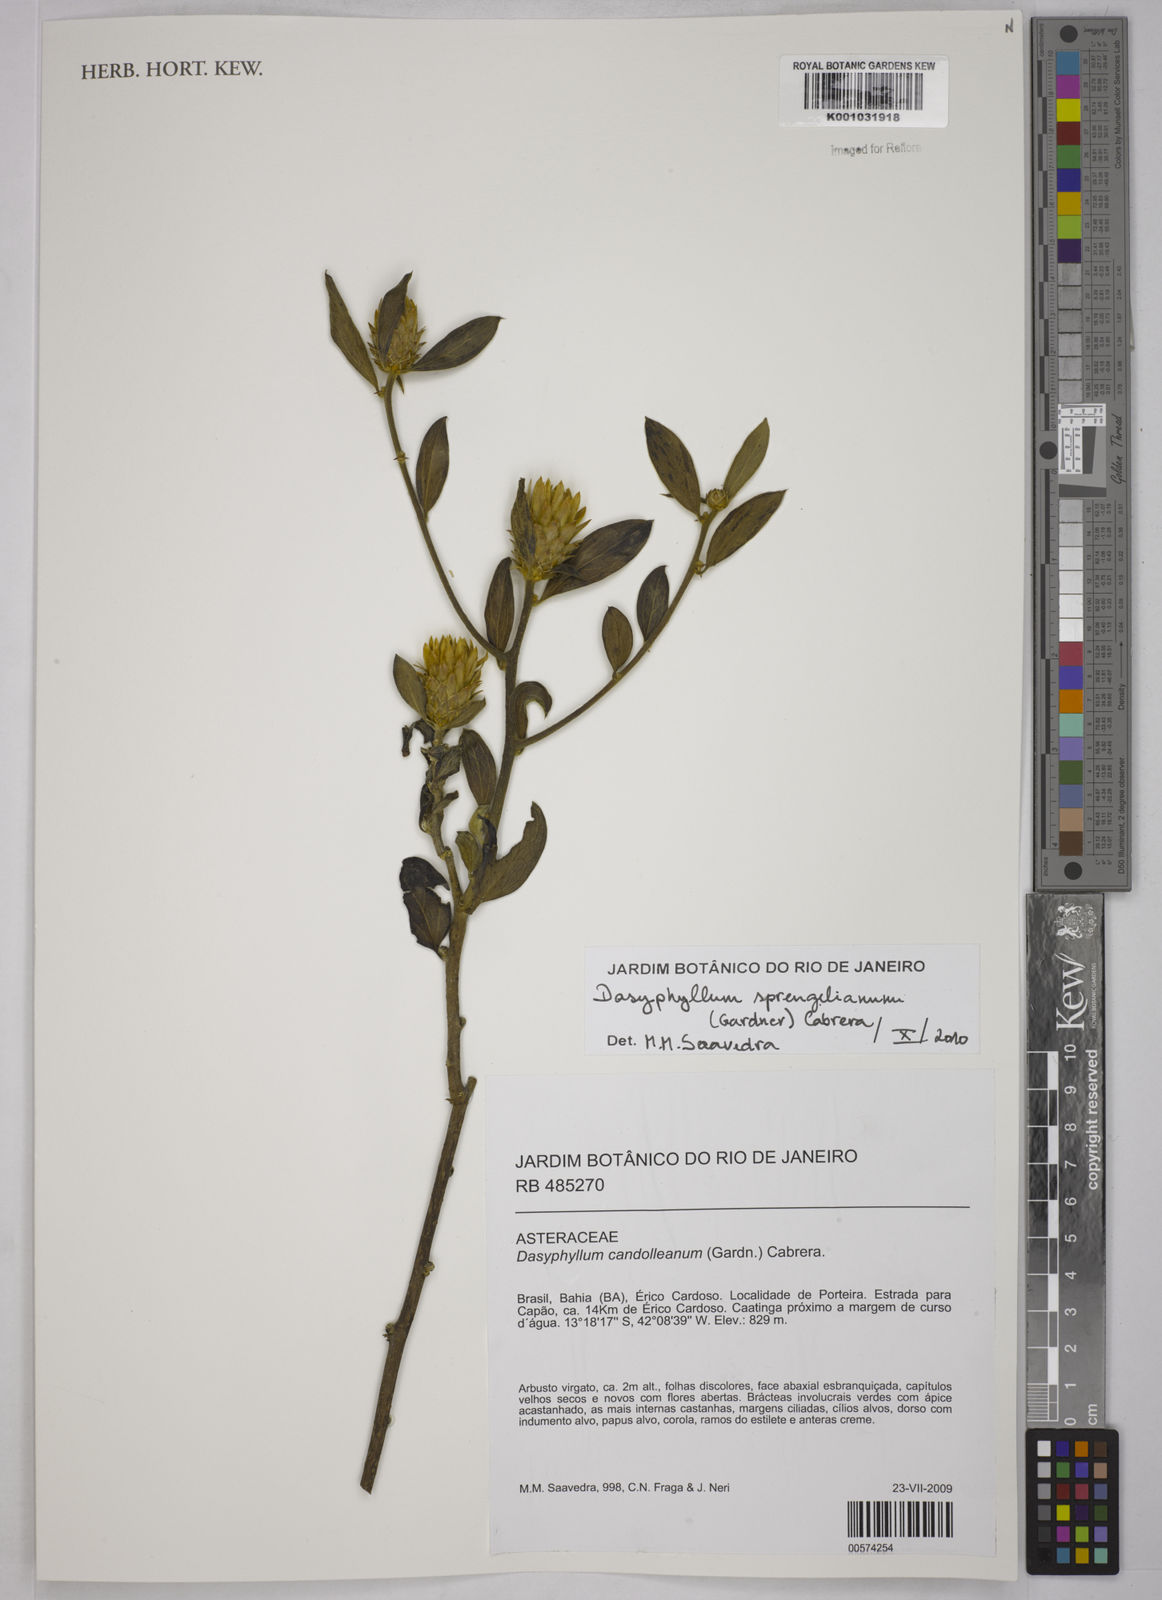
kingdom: Plantae
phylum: Tracheophyta
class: Magnoliopsida
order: Asterales
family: Asteraceae
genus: Dasyphyllum
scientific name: Dasyphyllum sprengelianum
